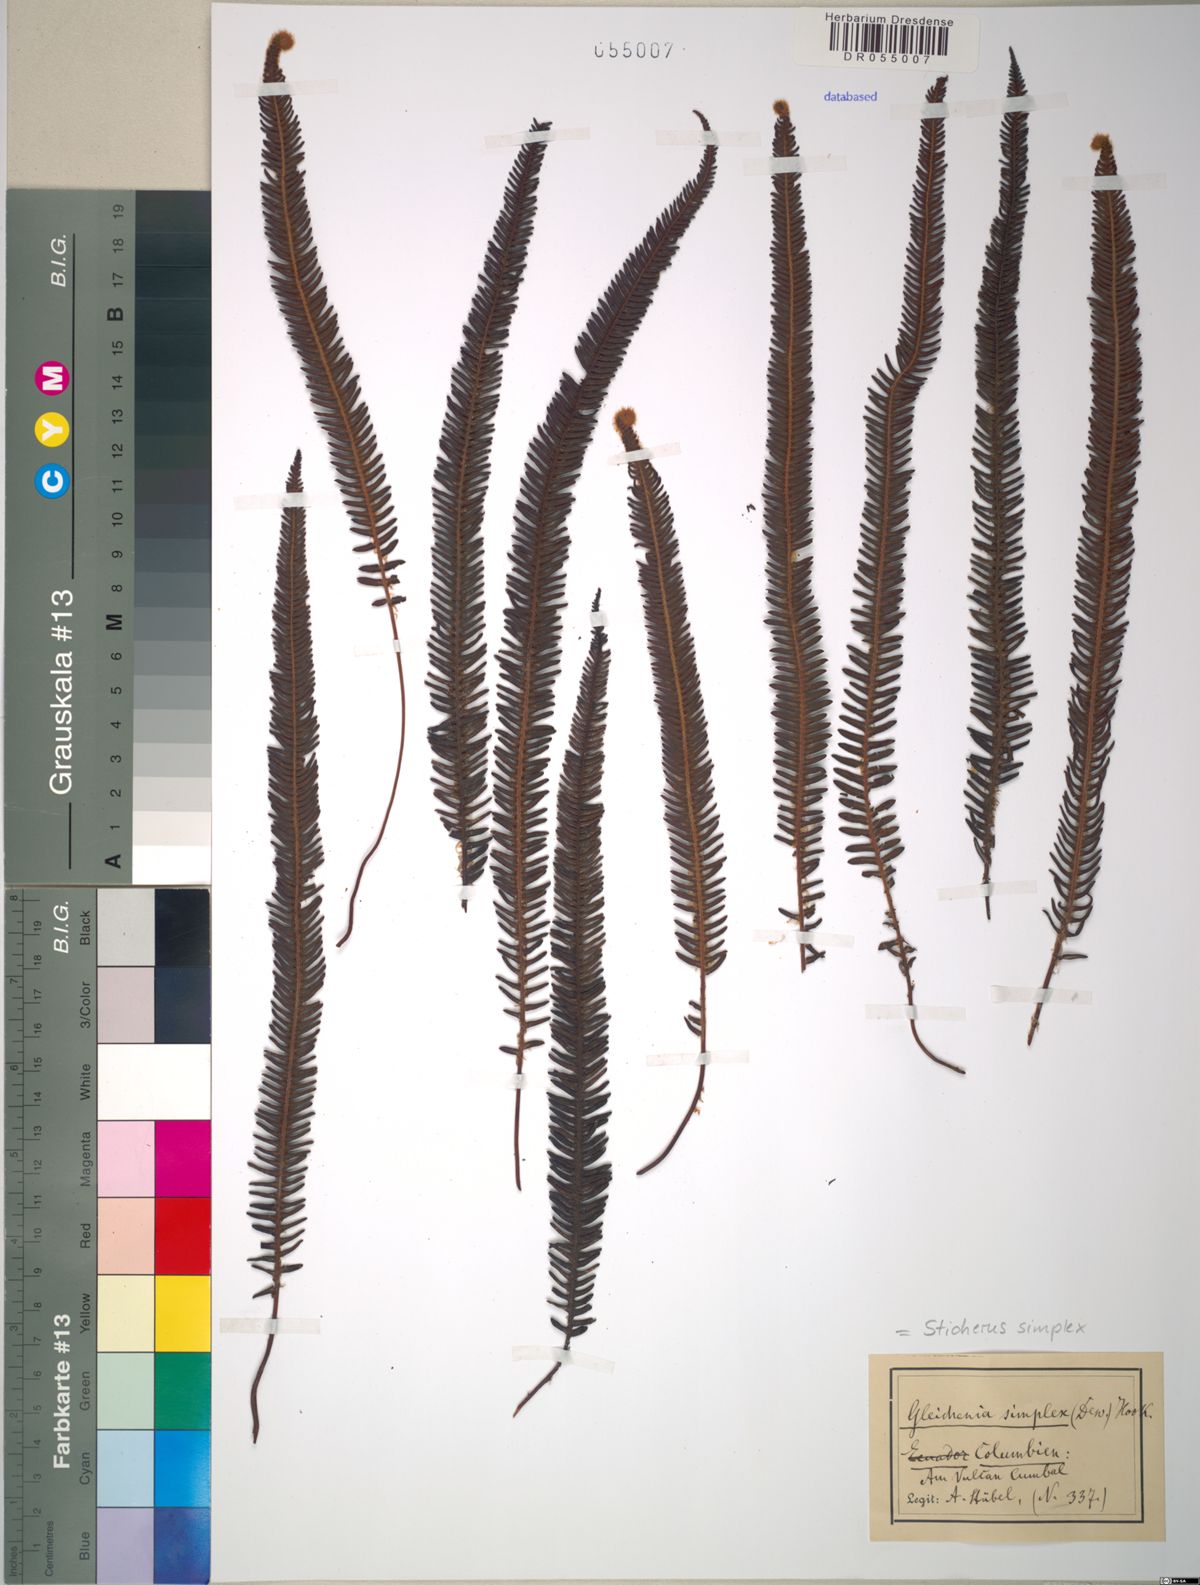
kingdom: Plantae
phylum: Tracheophyta
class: Polypodiopsida
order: Gleicheniales
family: Gleicheniaceae
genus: Sticherus
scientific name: Sticherus simplex
